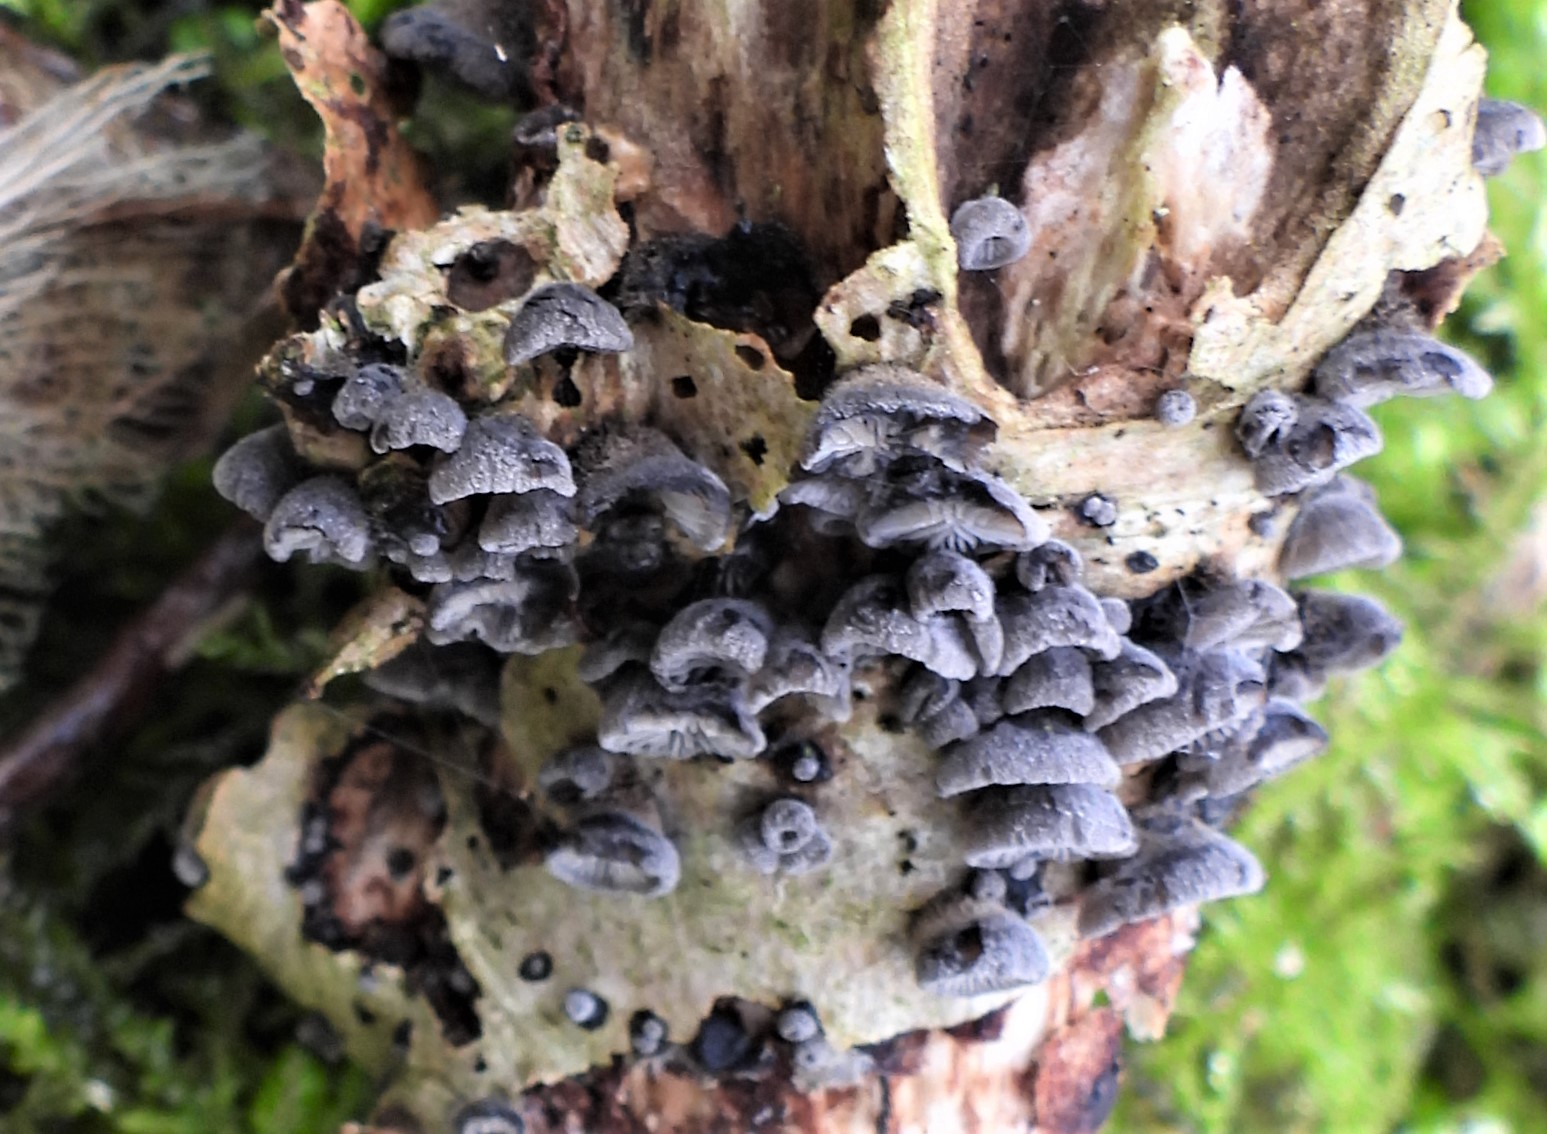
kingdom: Fungi
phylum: Basidiomycota
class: Agaricomycetes
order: Agaricales
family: Pleurotaceae
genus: Resupinatus
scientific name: Resupinatus trichotis
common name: mørkfiltet barkhat
